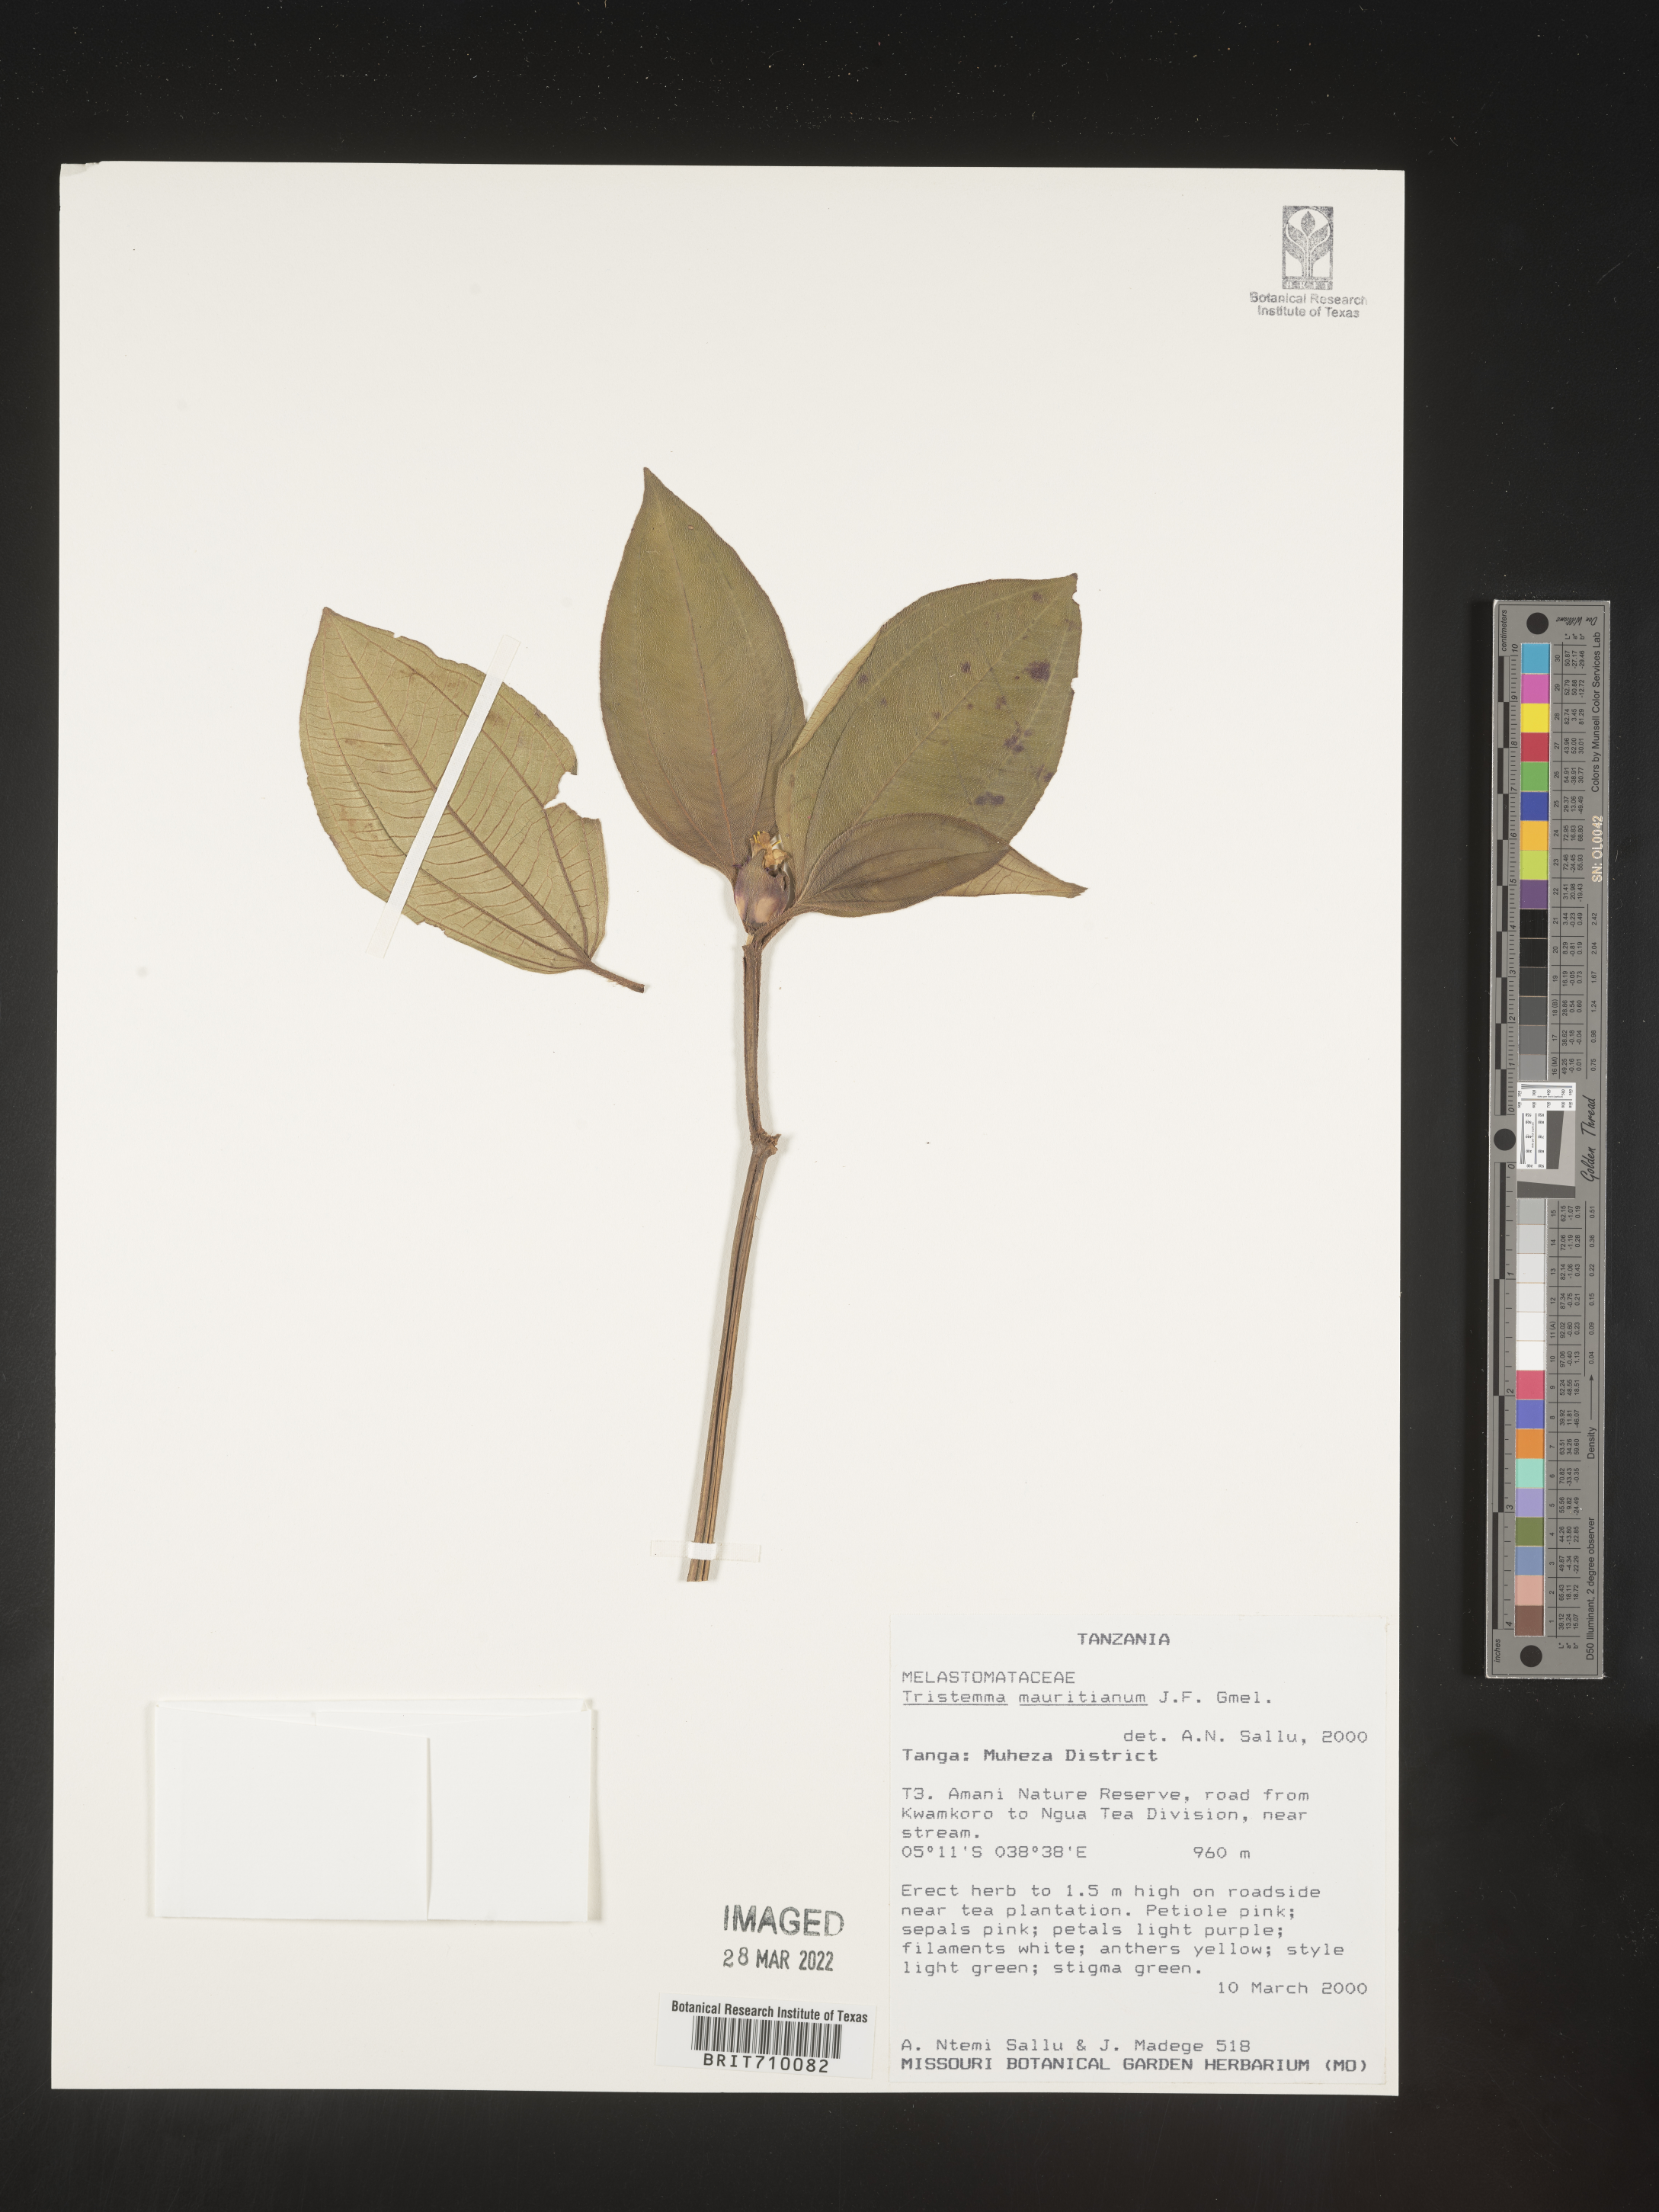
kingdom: Plantae
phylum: Tracheophyta
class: Magnoliopsida
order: Myrtales
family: Melastomataceae
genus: Tristemma
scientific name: Tristemma
